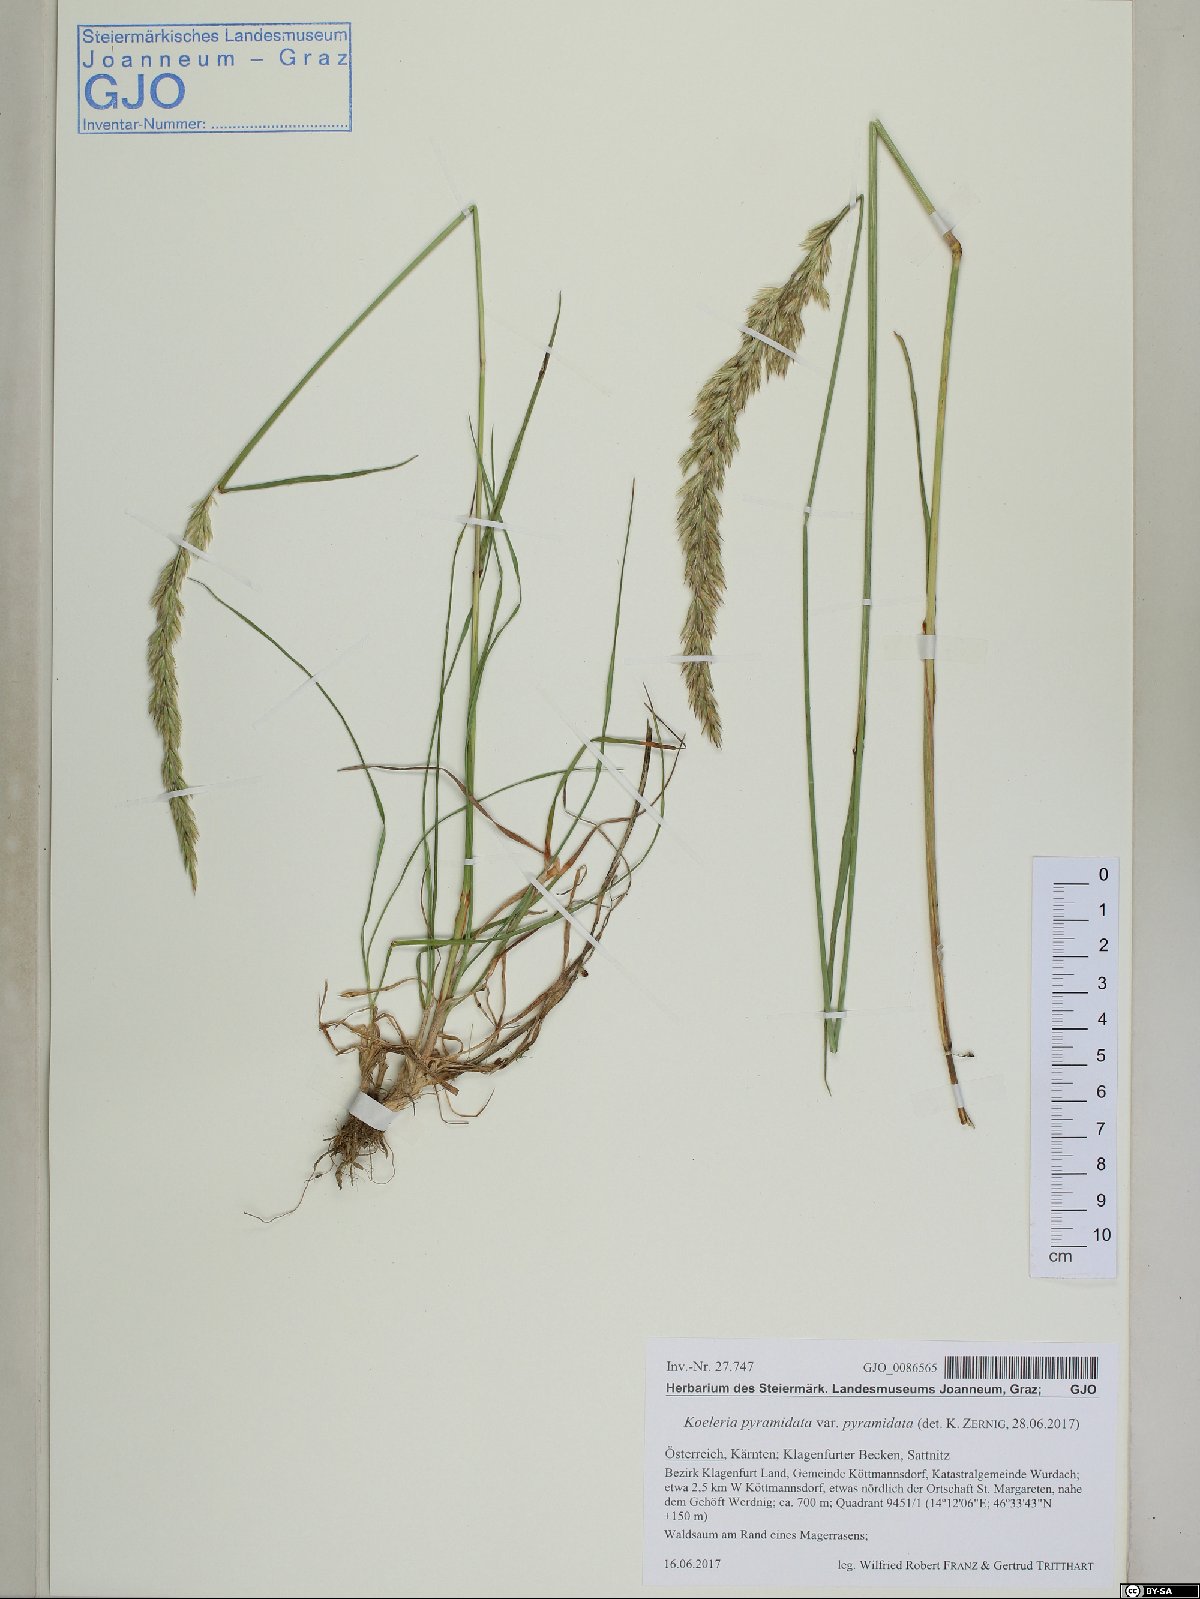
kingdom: Plantae
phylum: Tracheophyta
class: Liliopsida
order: Poales
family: Poaceae
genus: Koeleria
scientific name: Koeleria pyramidata
